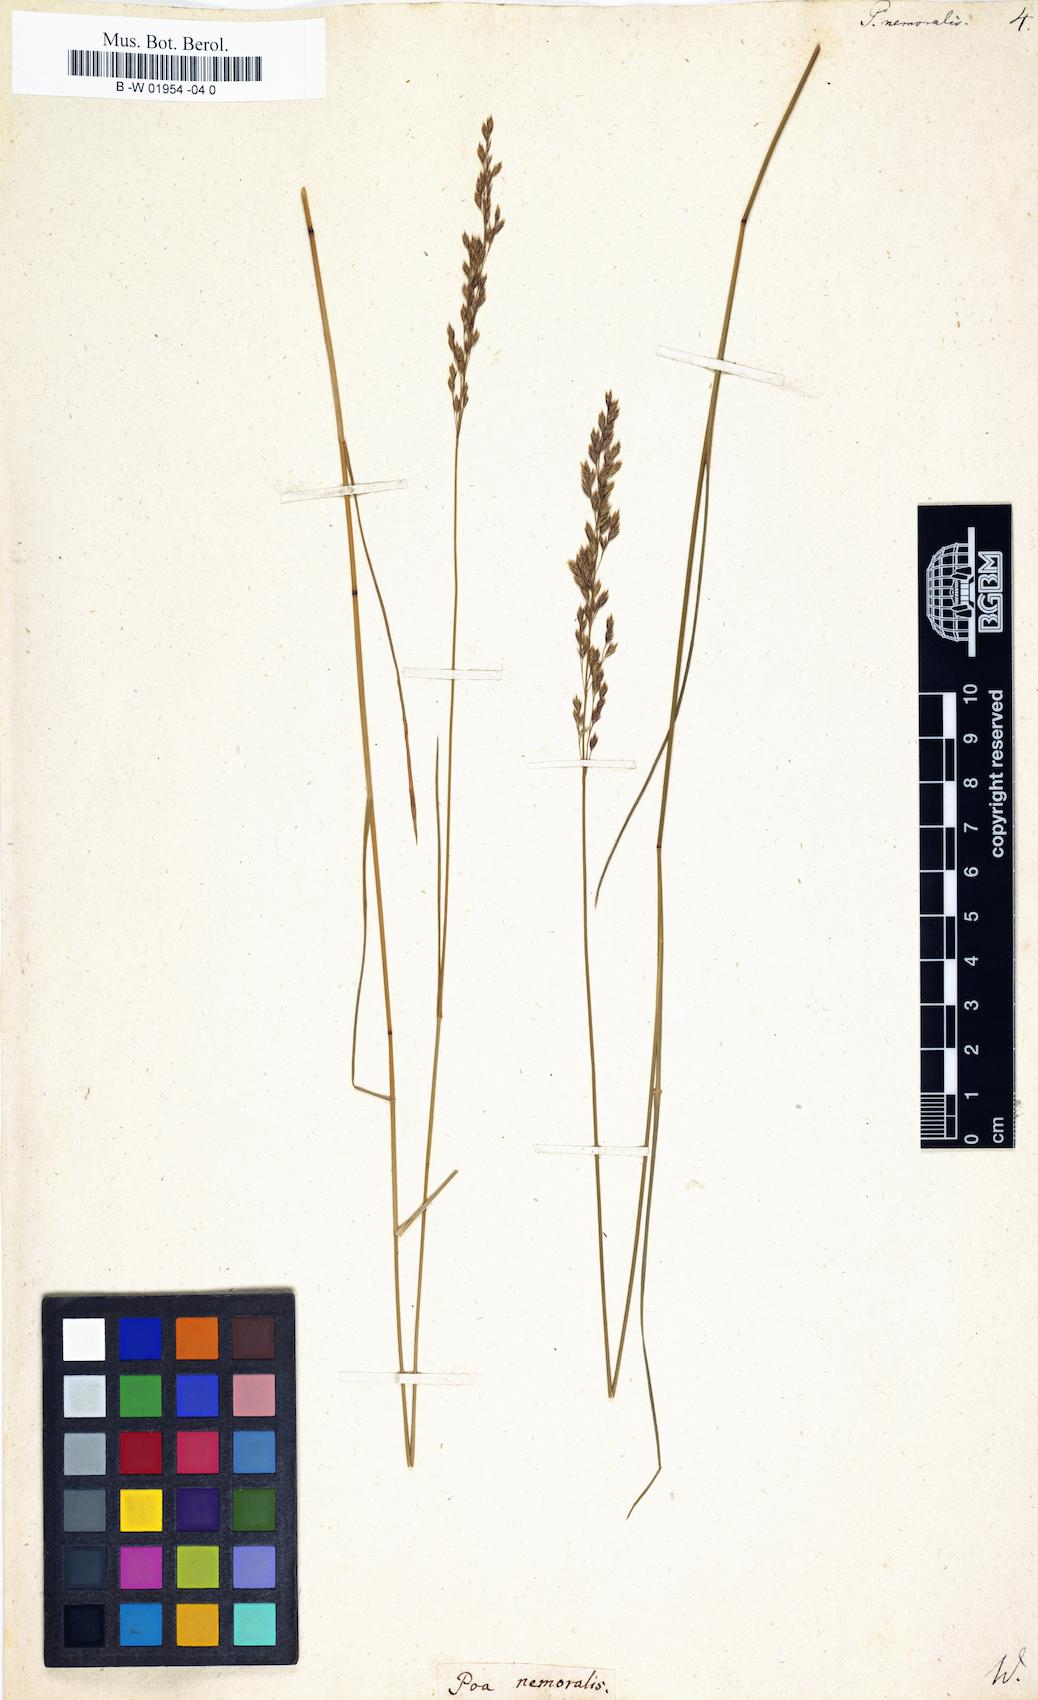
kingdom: Plantae
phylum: Tracheophyta
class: Liliopsida
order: Poales
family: Poaceae
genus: Poa
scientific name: Poa nemoralis
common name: Wood bluegrass
